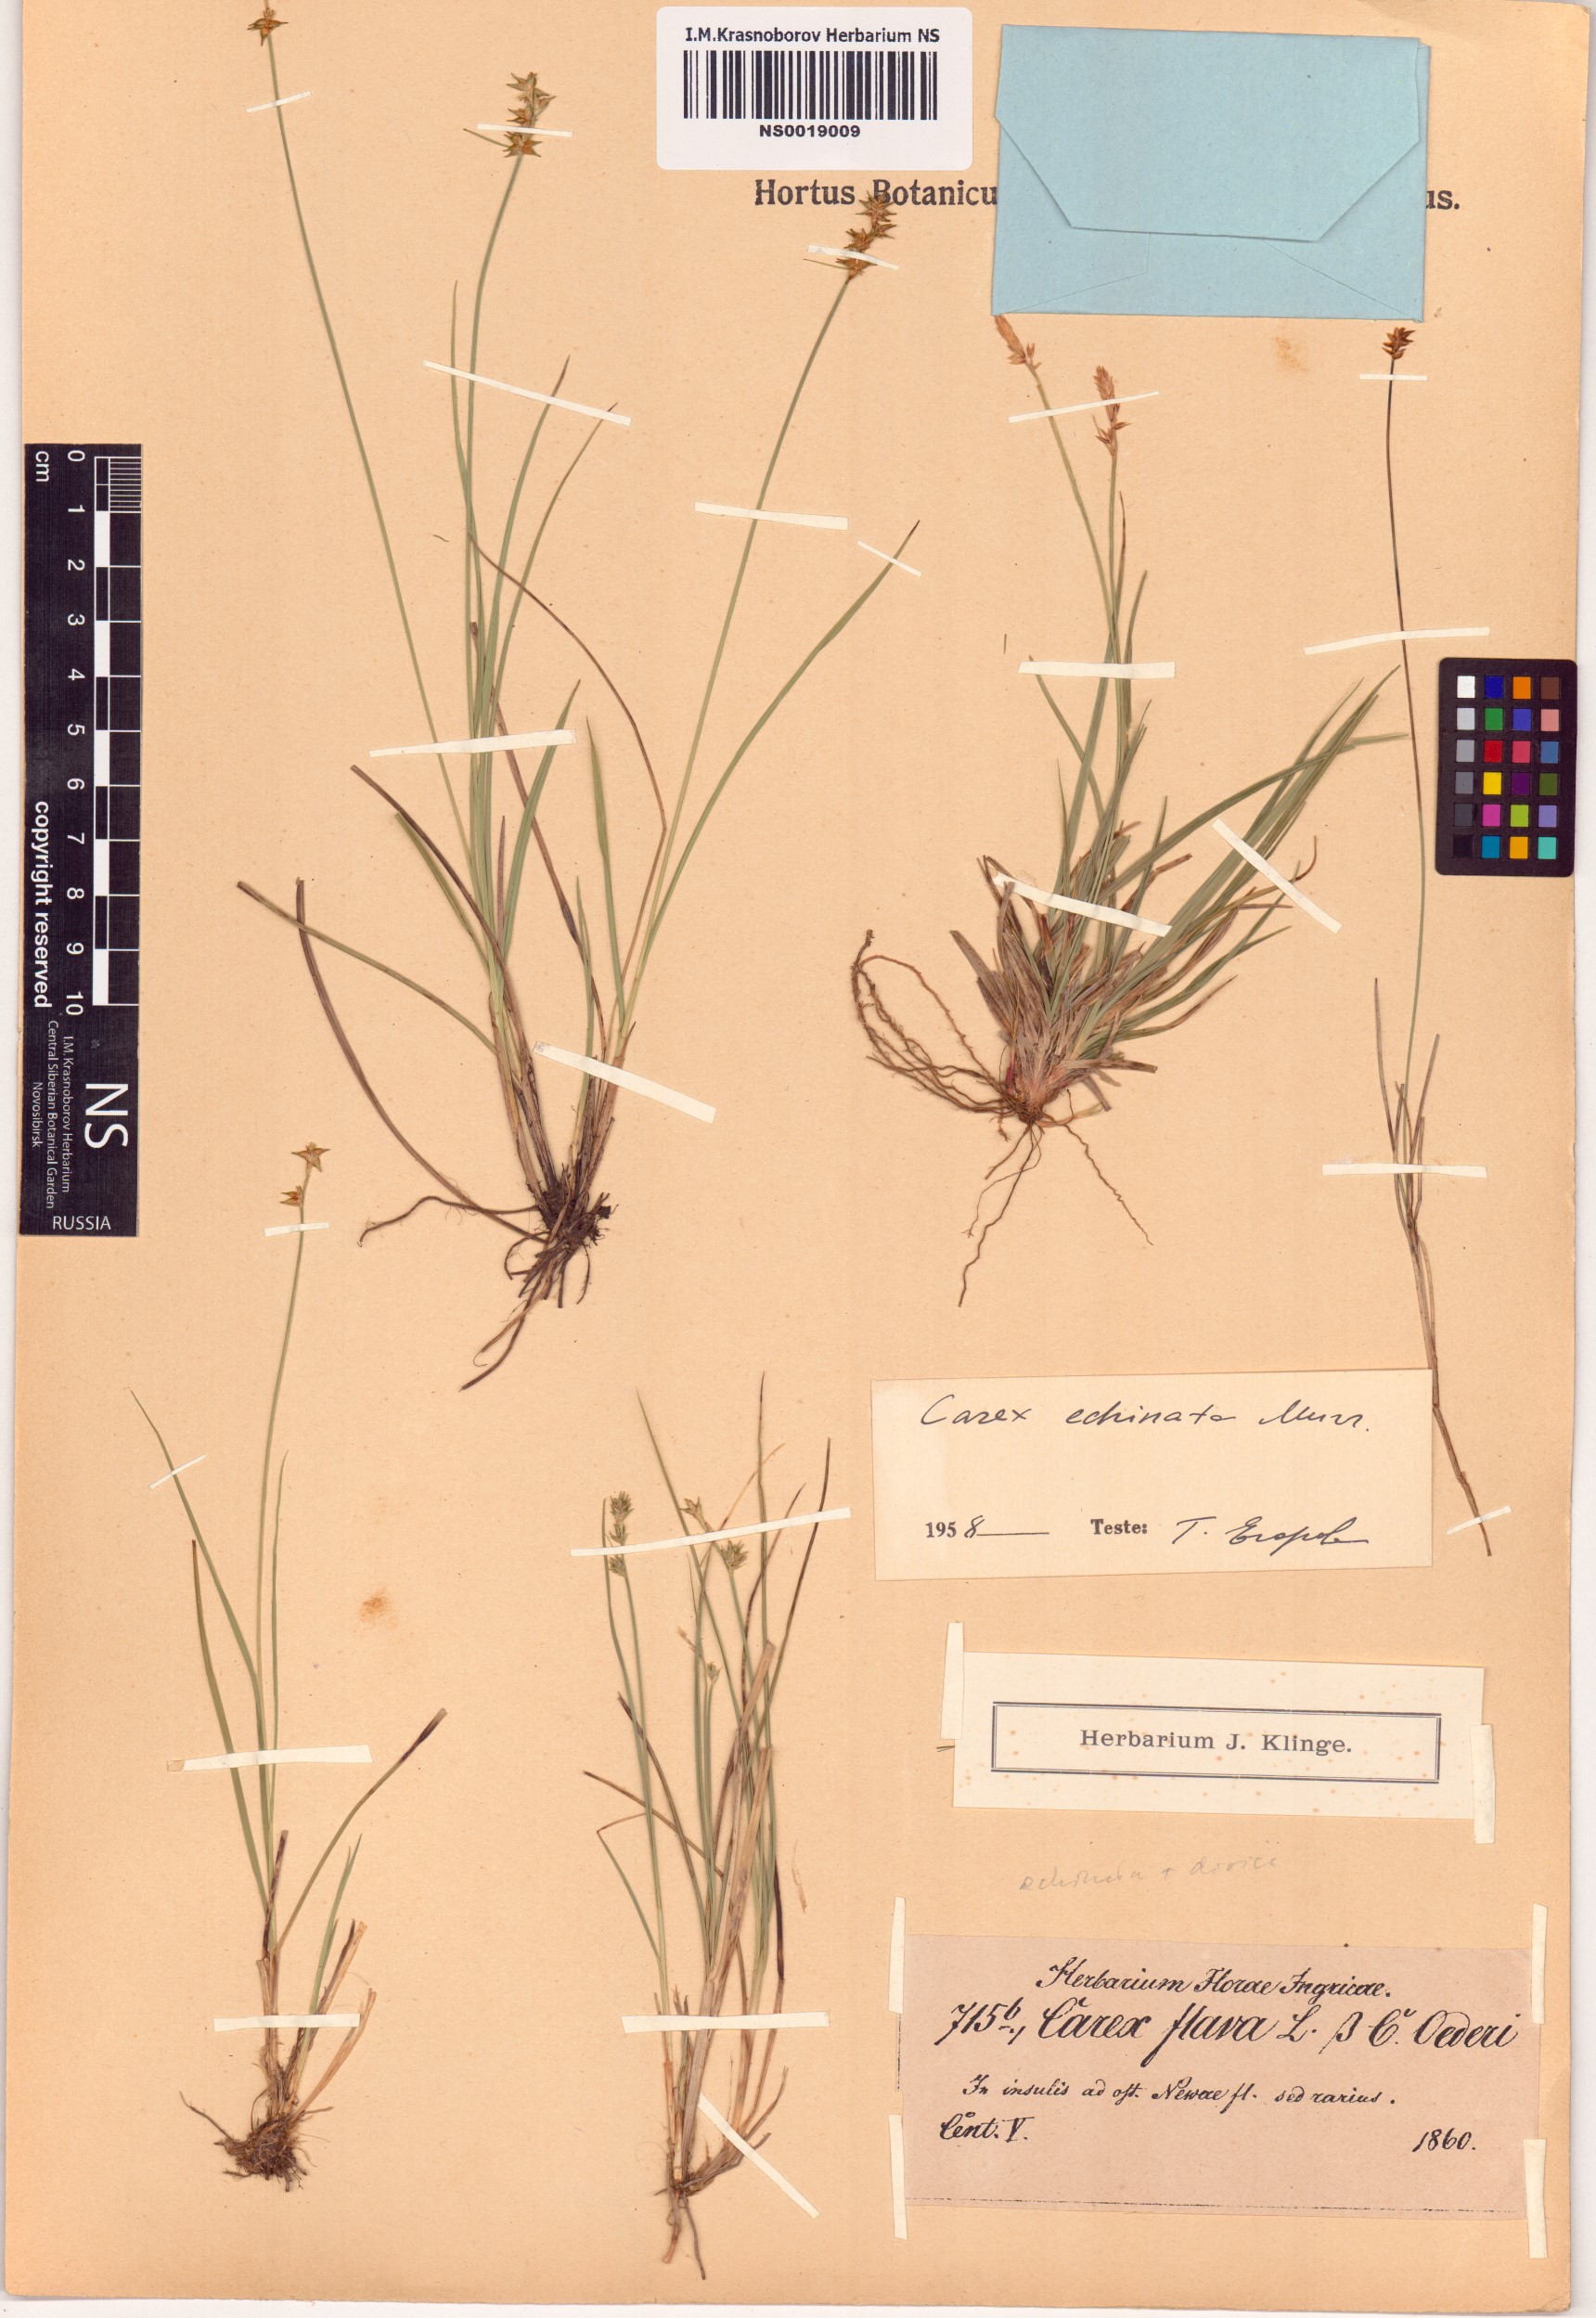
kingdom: Plantae
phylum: Tracheophyta
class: Liliopsida
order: Poales
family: Cyperaceae
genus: Carex
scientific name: Carex echinata
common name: Star sedge
